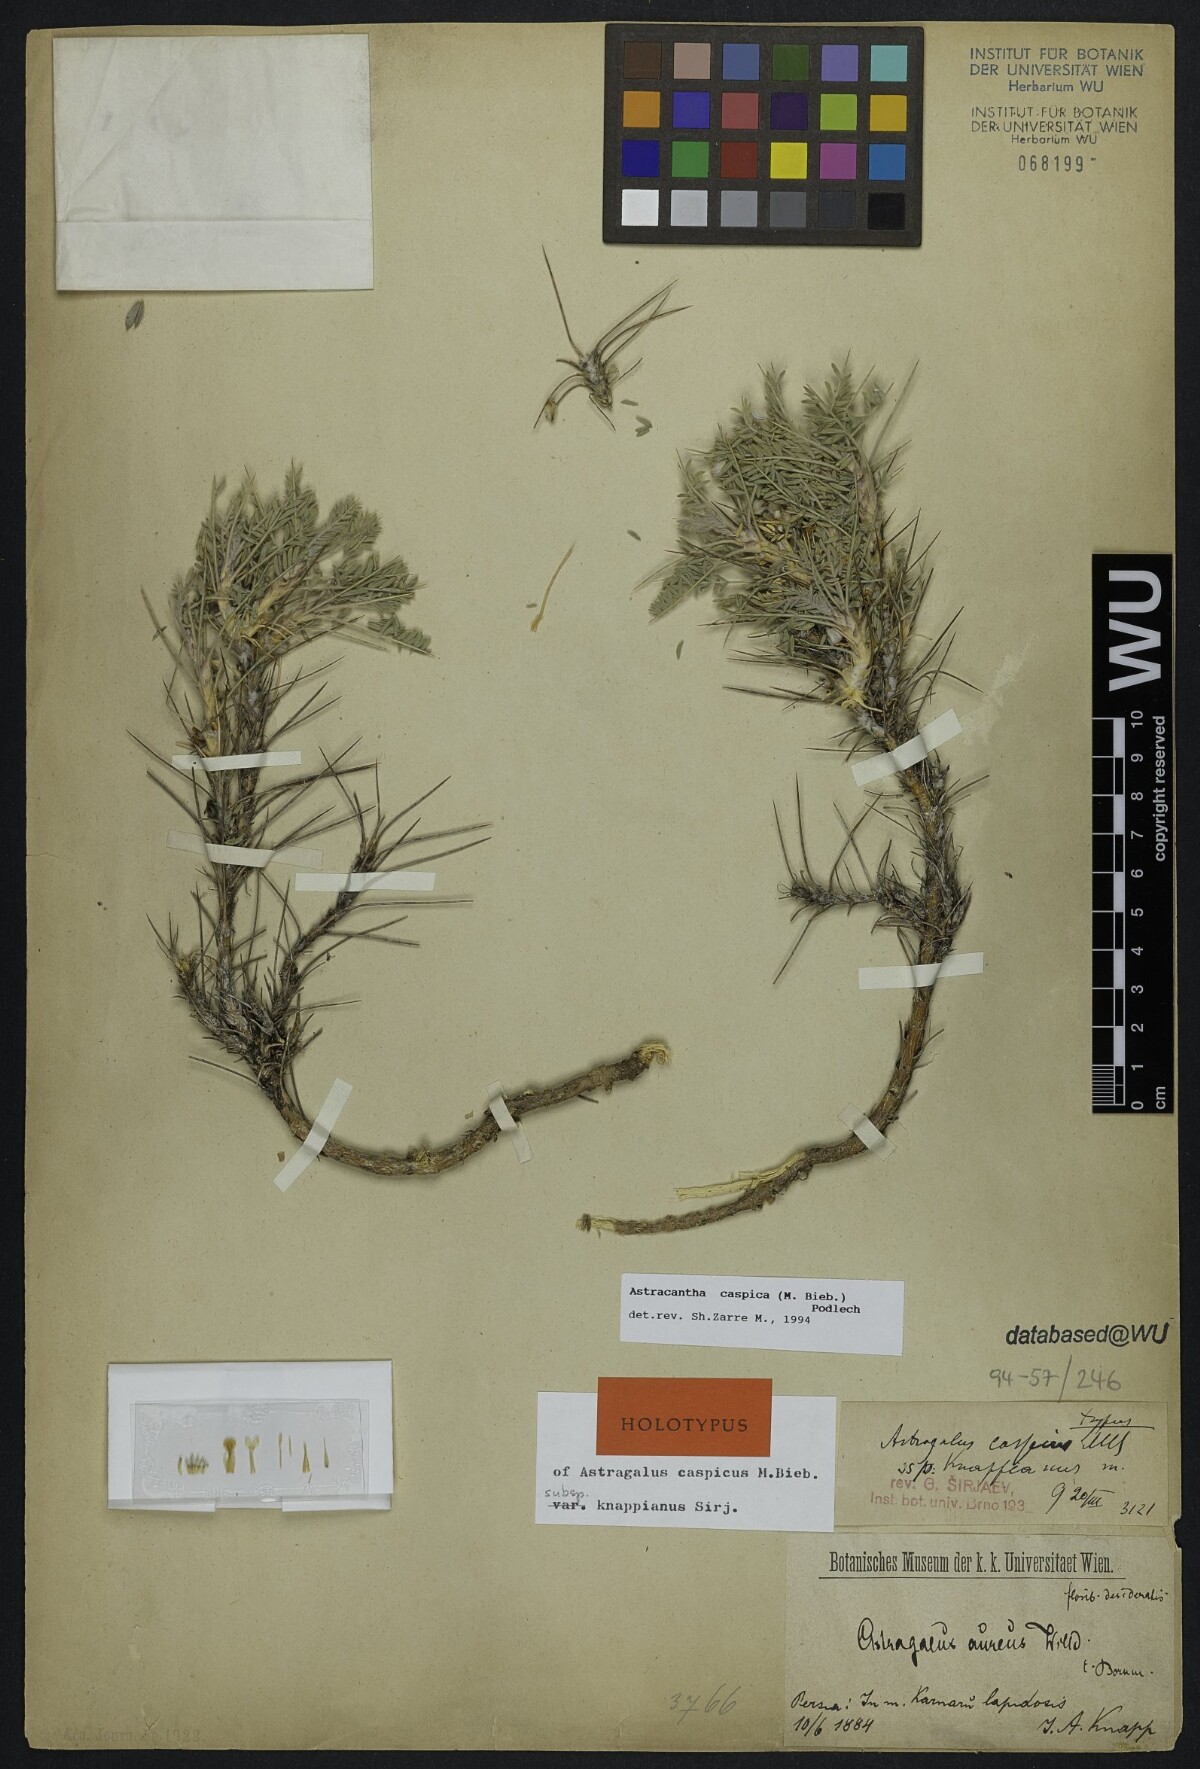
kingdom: Plantae
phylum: Tracheophyta
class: Magnoliopsida
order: Fabales
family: Fabaceae
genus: Astragalus
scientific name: Astragalus caspicus
